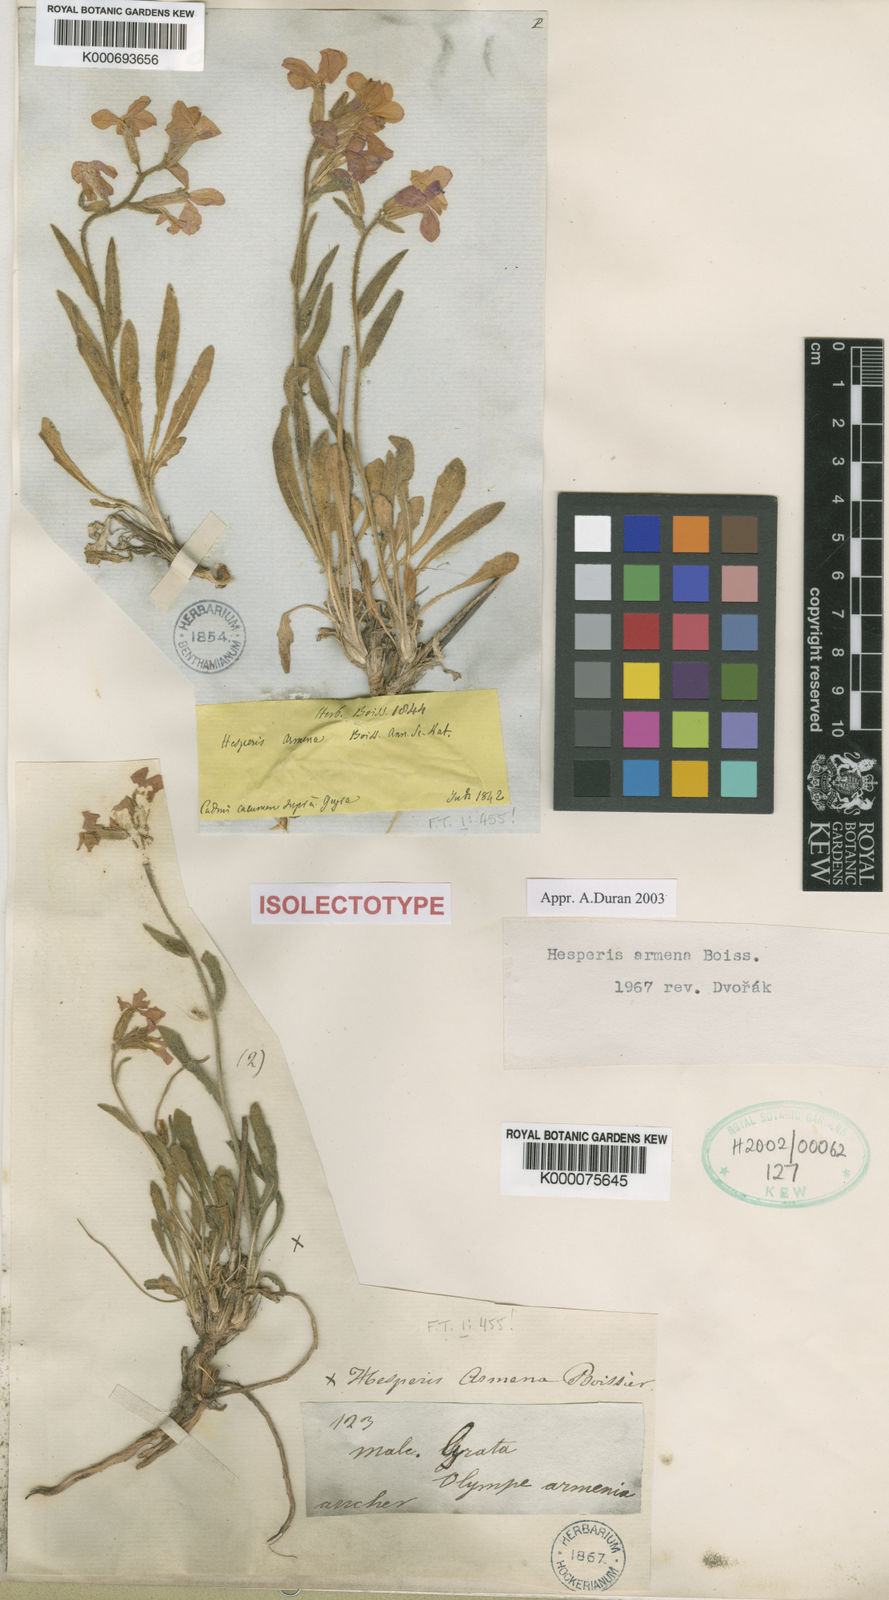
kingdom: Plantae
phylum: Tracheophyta
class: Magnoliopsida
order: Brassicales
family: Brassicaceae
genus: Hesperis
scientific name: Hesperis armena
